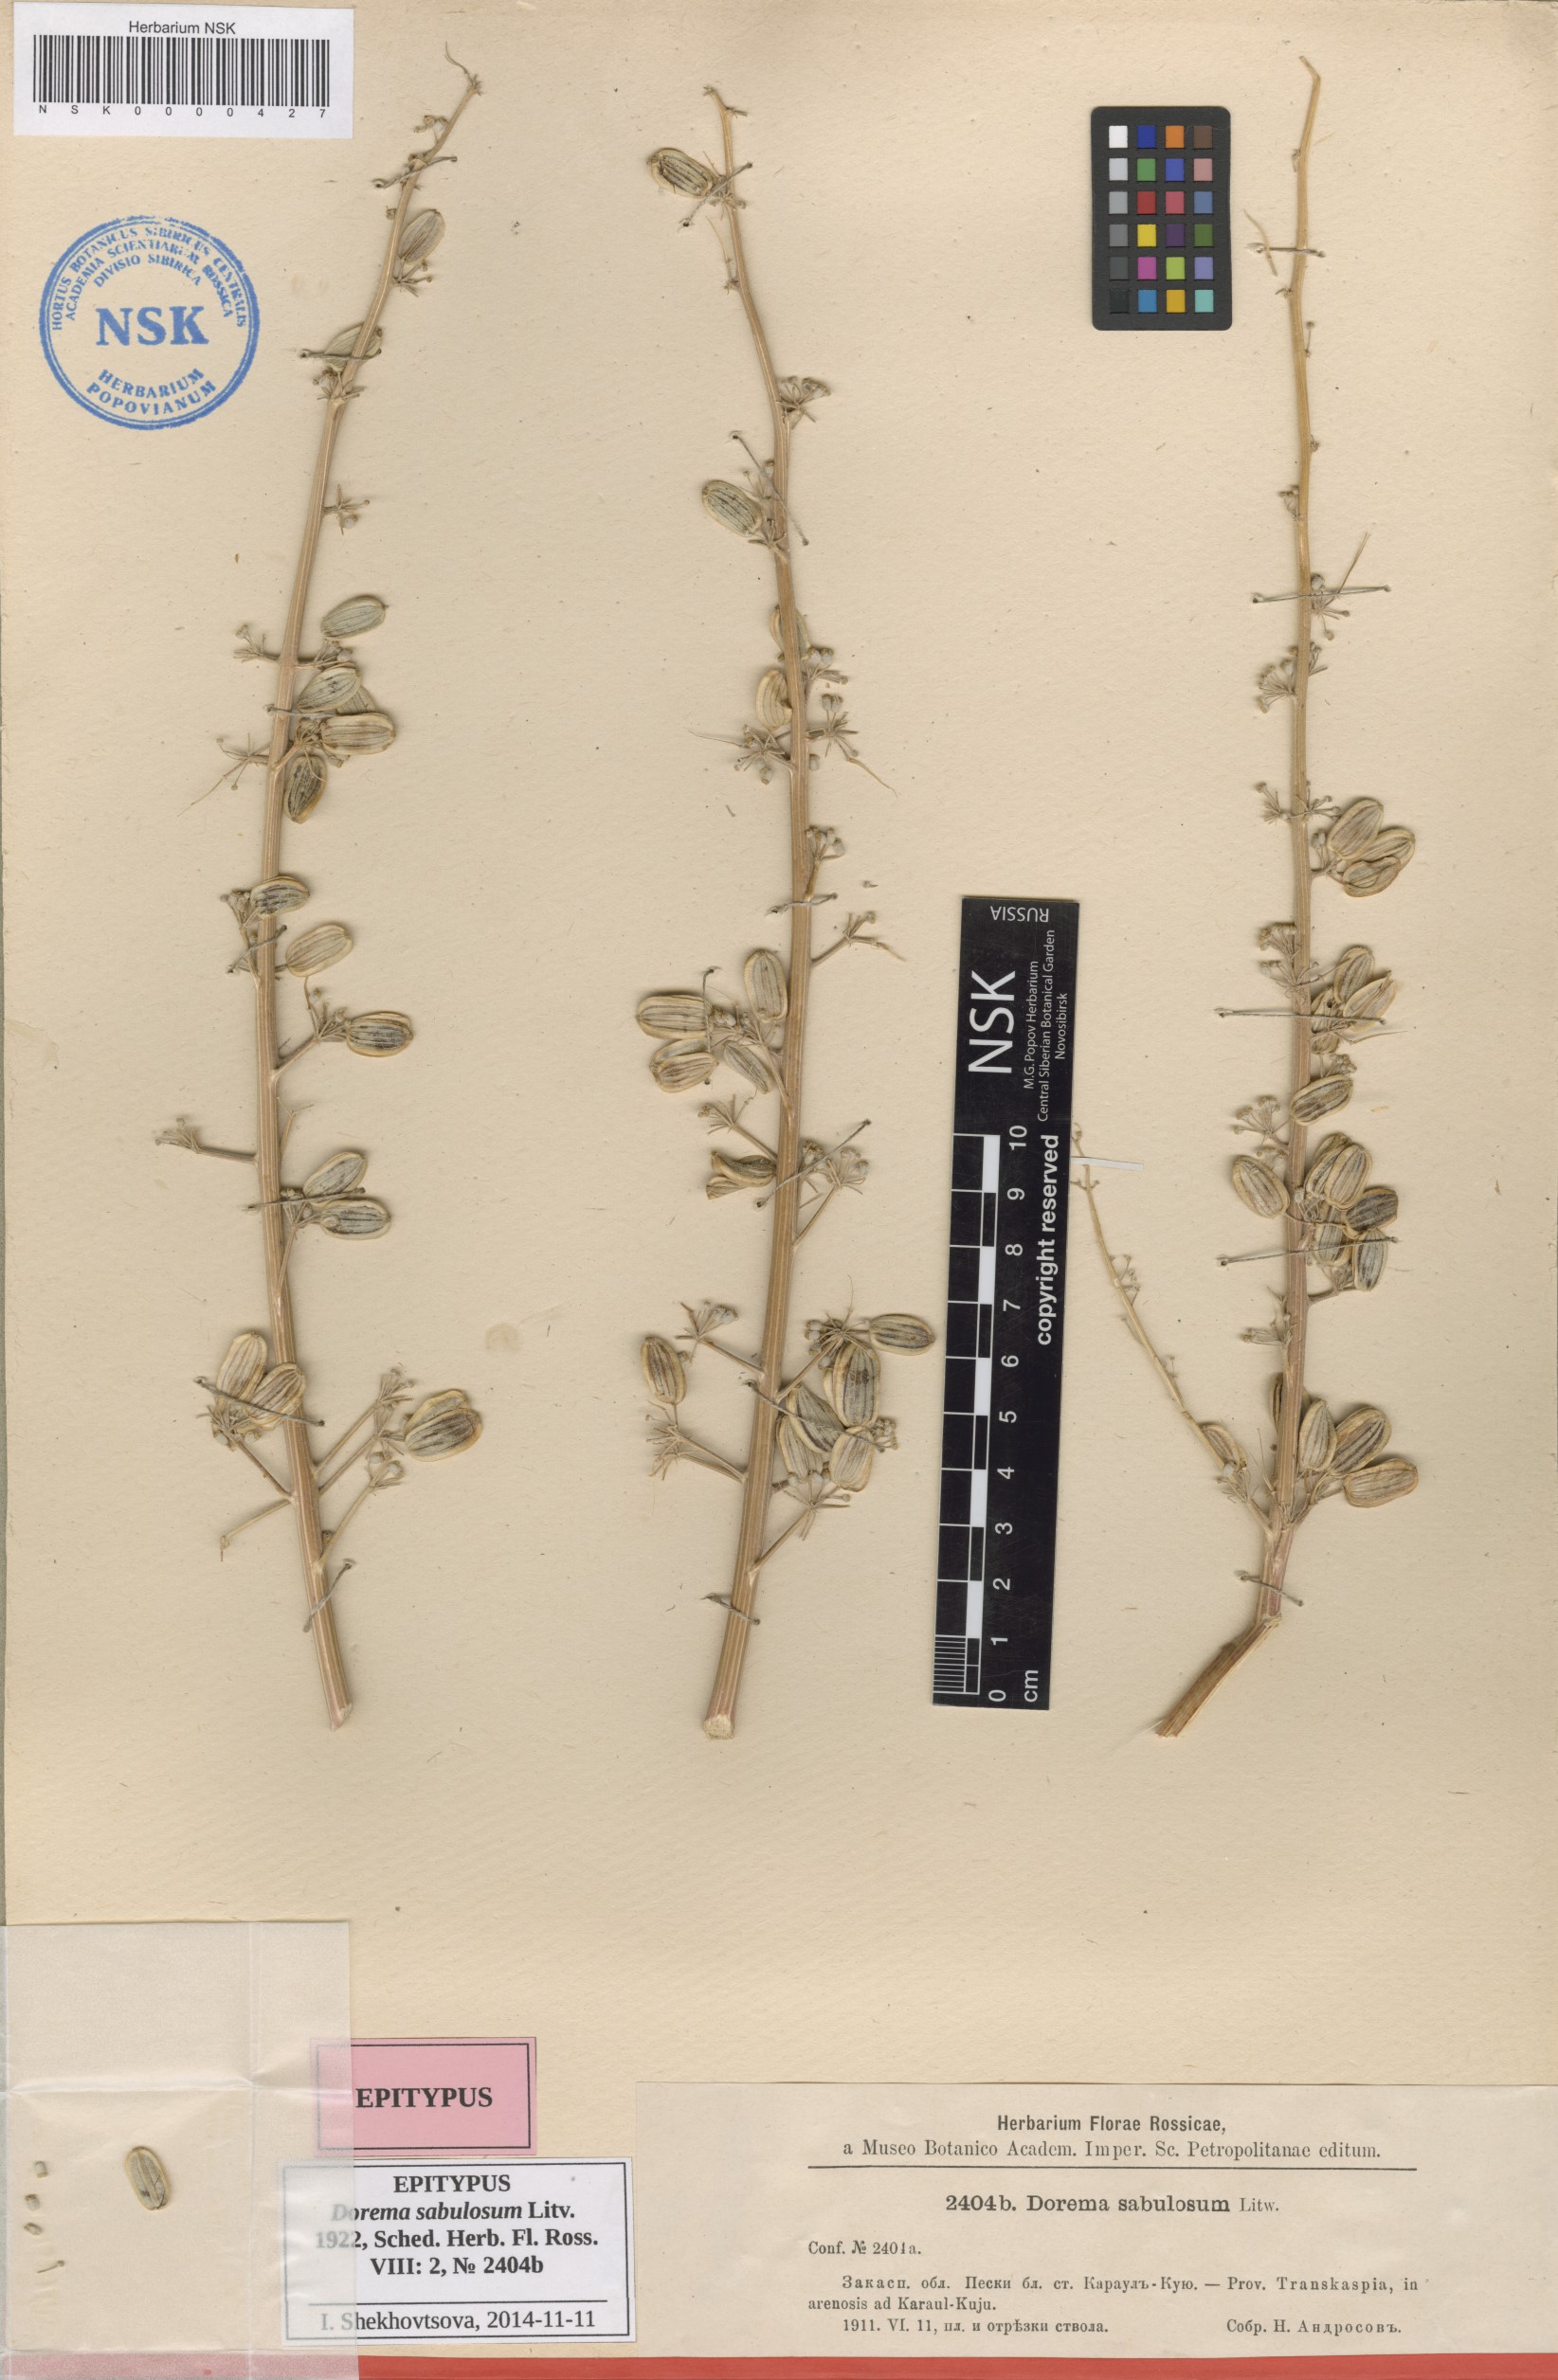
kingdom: Plantae
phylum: Tracheophyta
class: Magnoliopsida
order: Apiales
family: Apiaceae
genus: Ferula
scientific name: Ferula sabulosum
